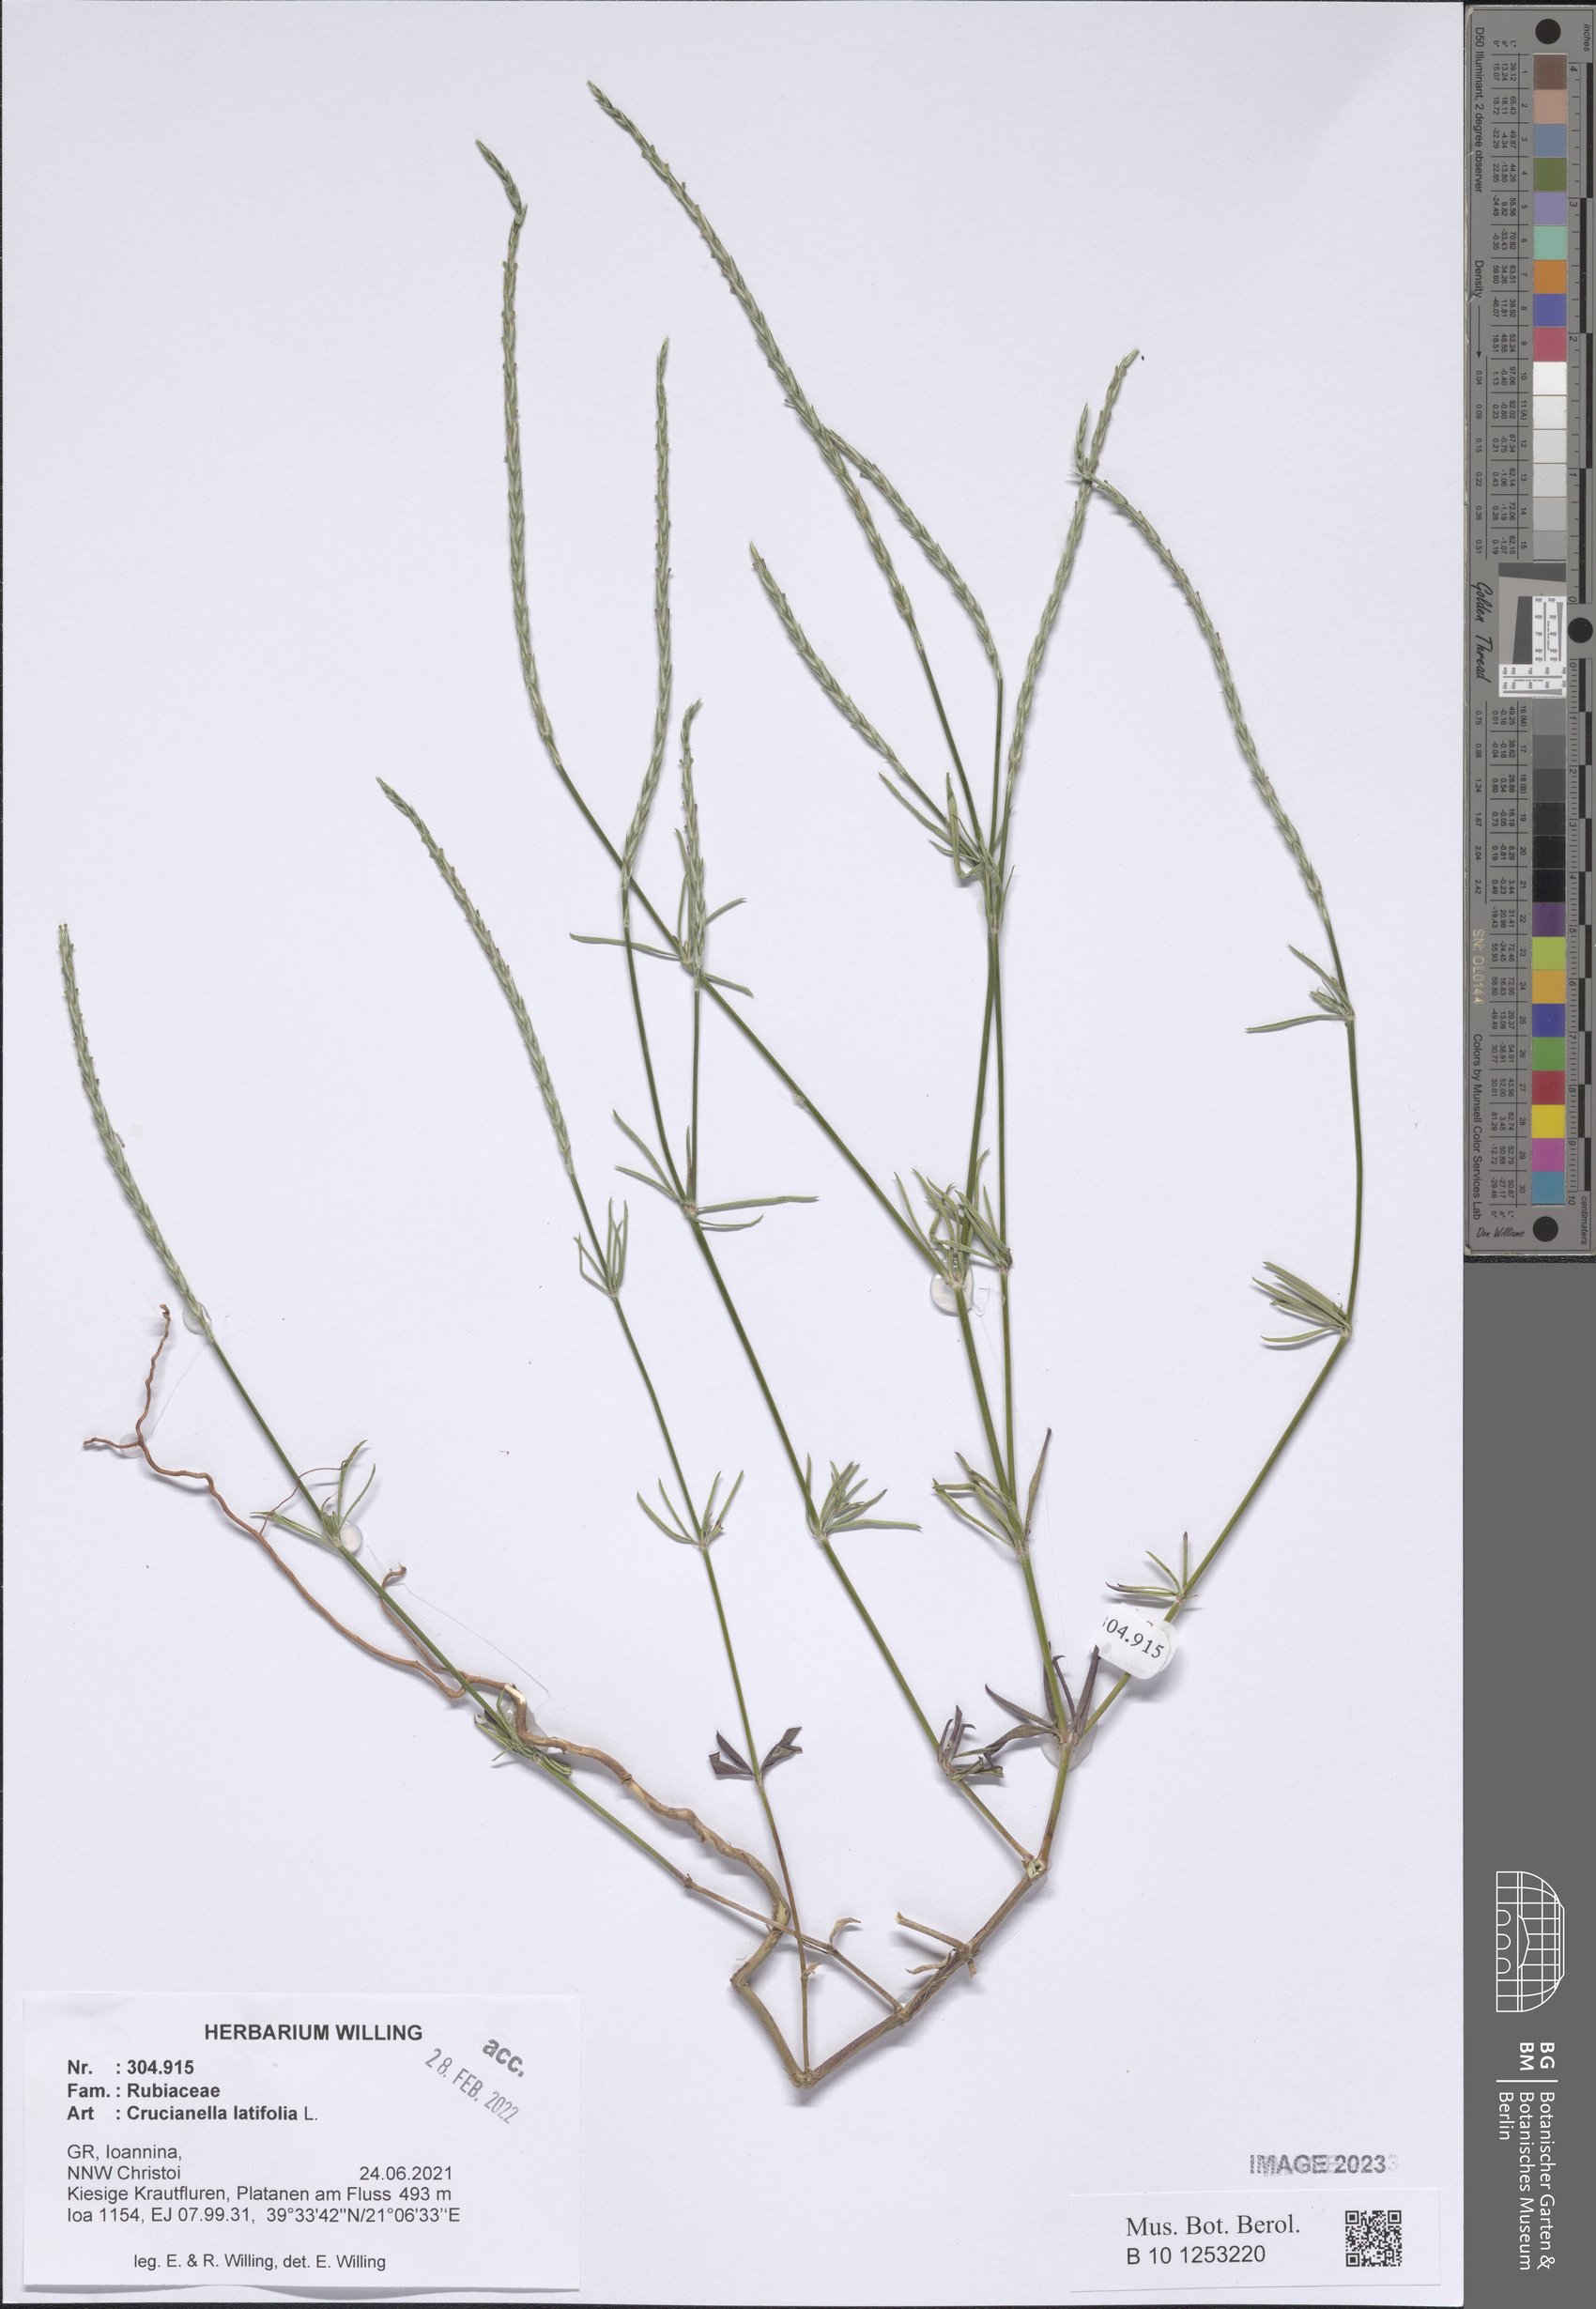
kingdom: Plantae
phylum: Tracheophyta
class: Magnoliopsida
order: Gentianales
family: Rubiaceae
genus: Crucianella
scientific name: Crucianella latifolia
